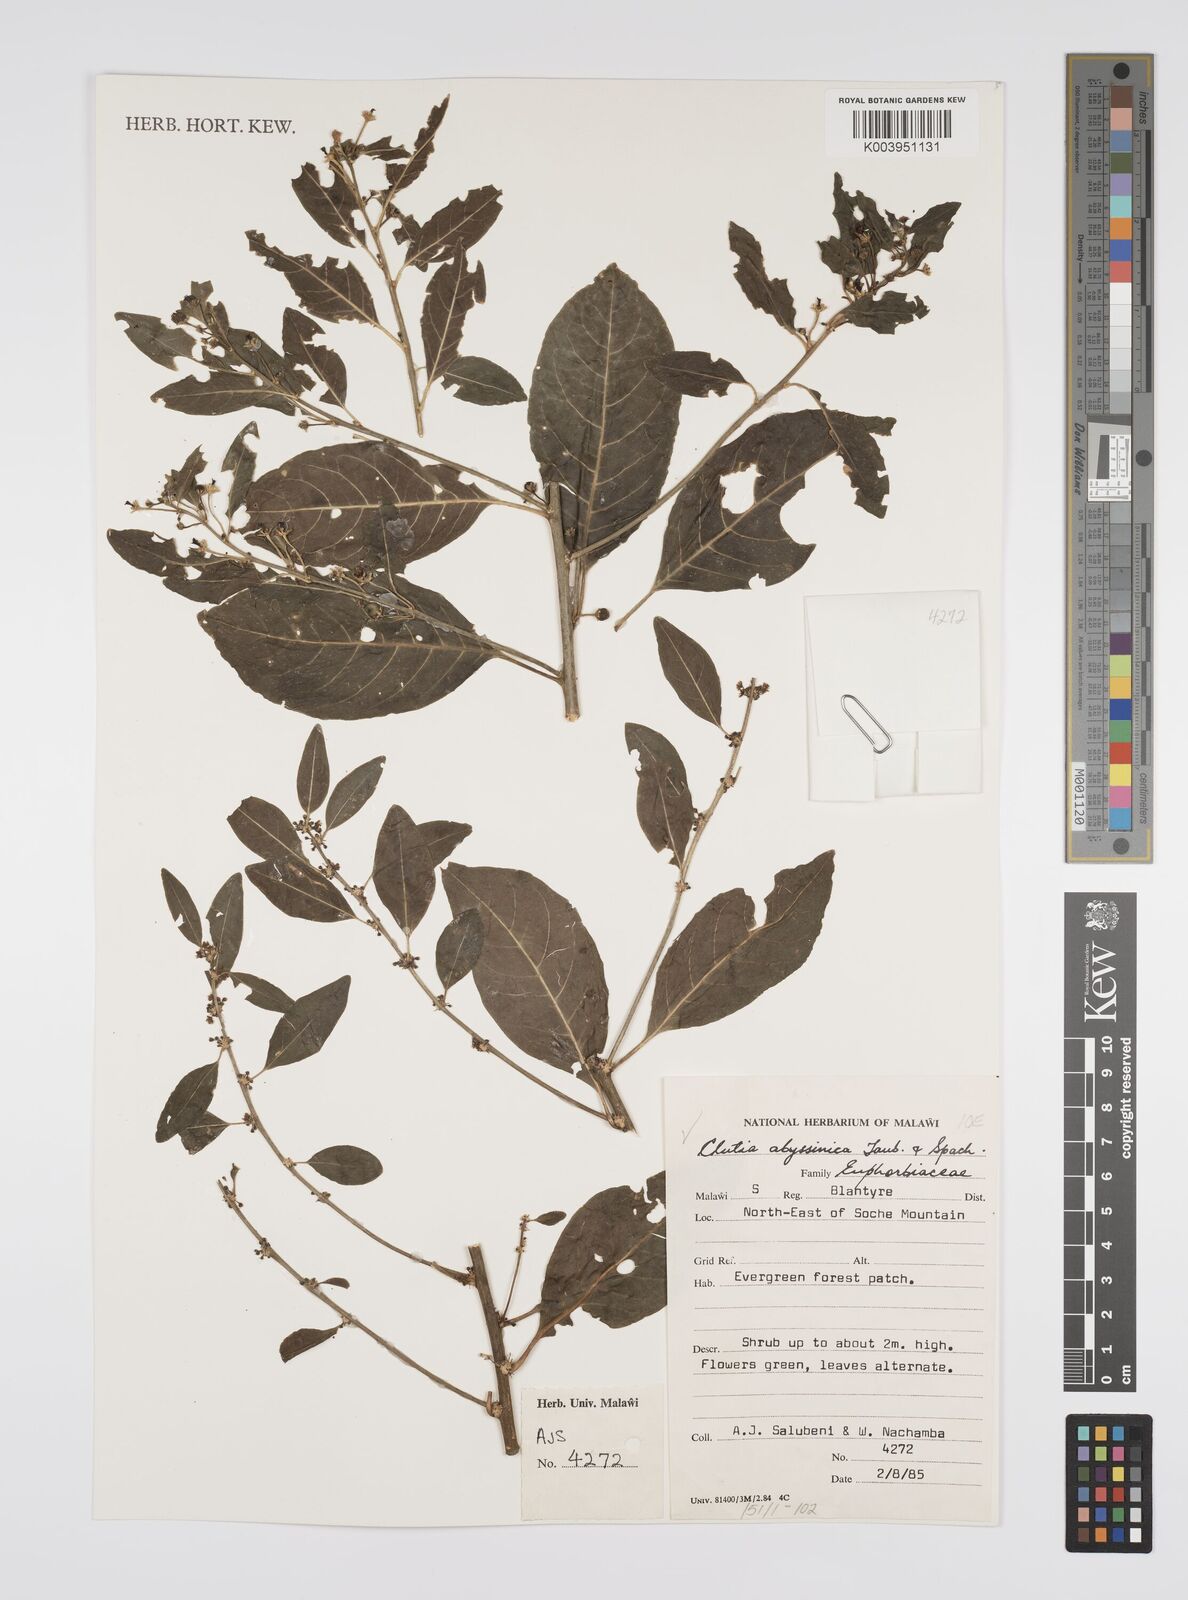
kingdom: Plantae
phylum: Tracheophyta
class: Magnoliopsida
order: Malpighiales
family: Peraceae
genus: Clutia
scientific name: Clutia abyssinica
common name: Large lightning bush
